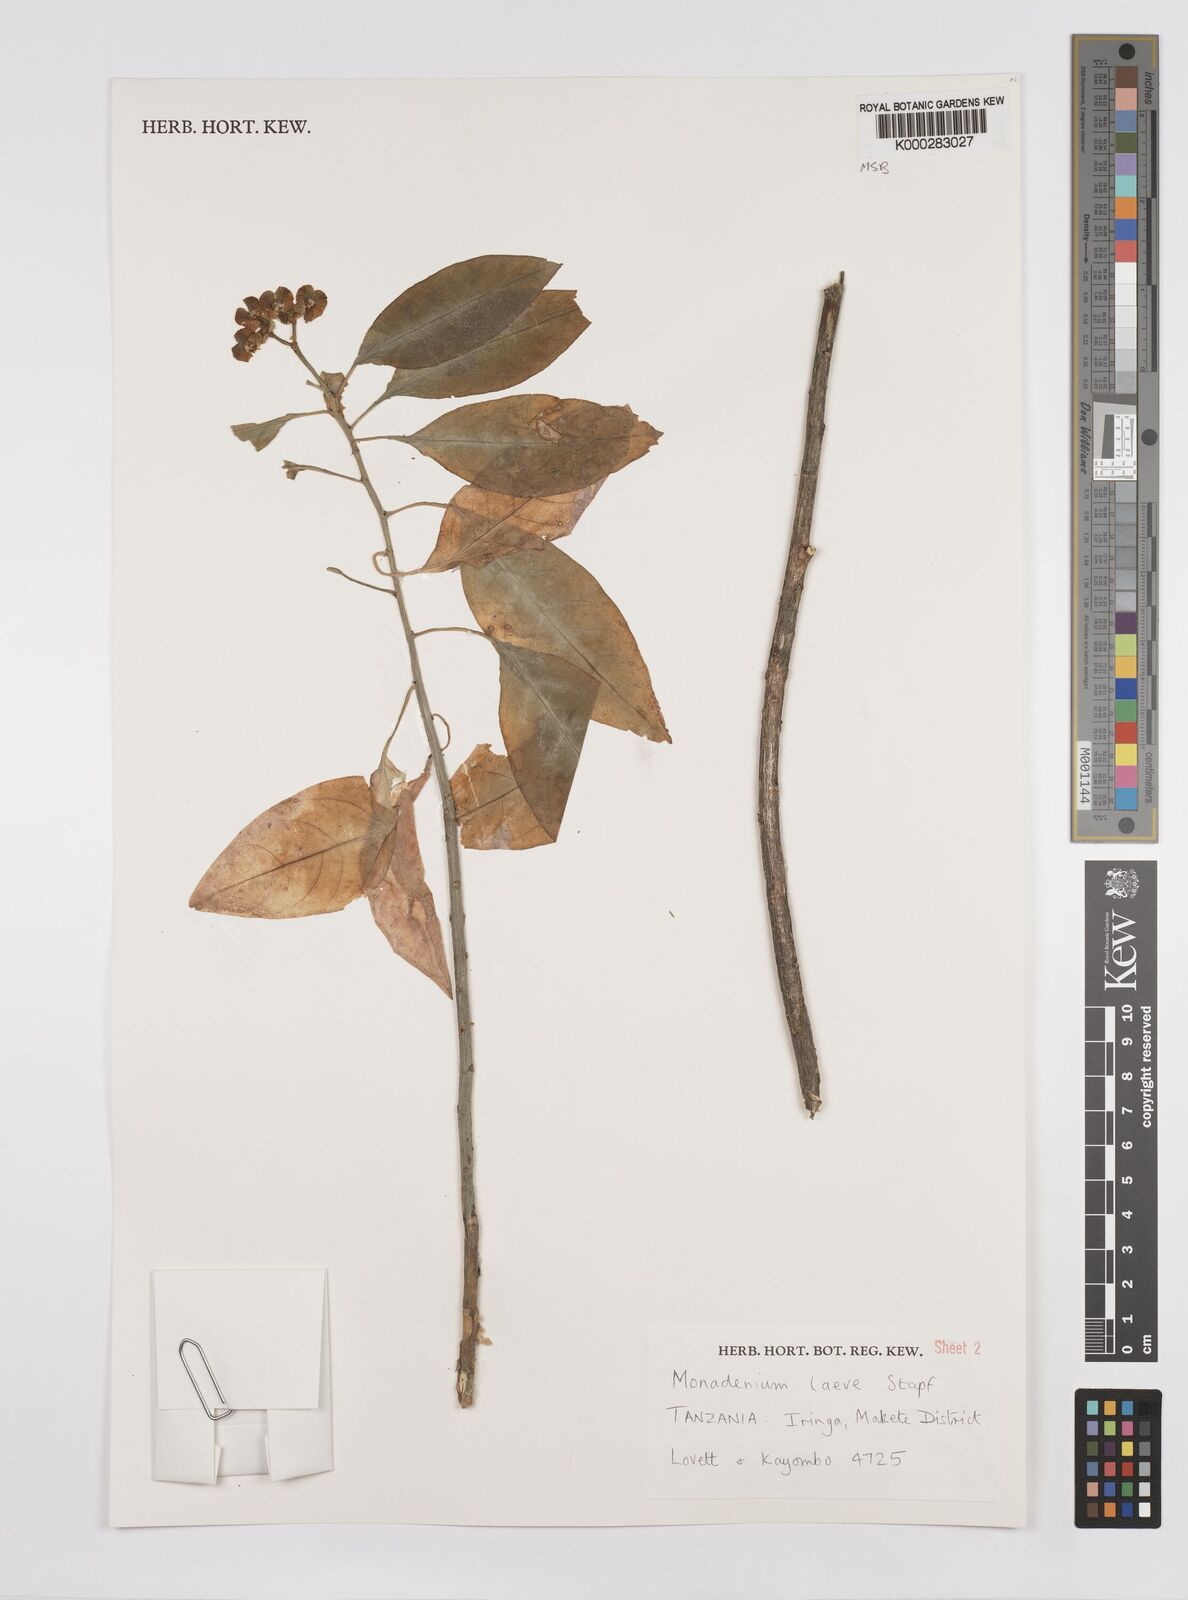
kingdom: Plantae
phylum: Tracheophyta
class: Magnoliopsida
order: Malpighiales
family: Euphorbiaceae
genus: Euphorbia
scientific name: Euphorbia pseudolaevis
